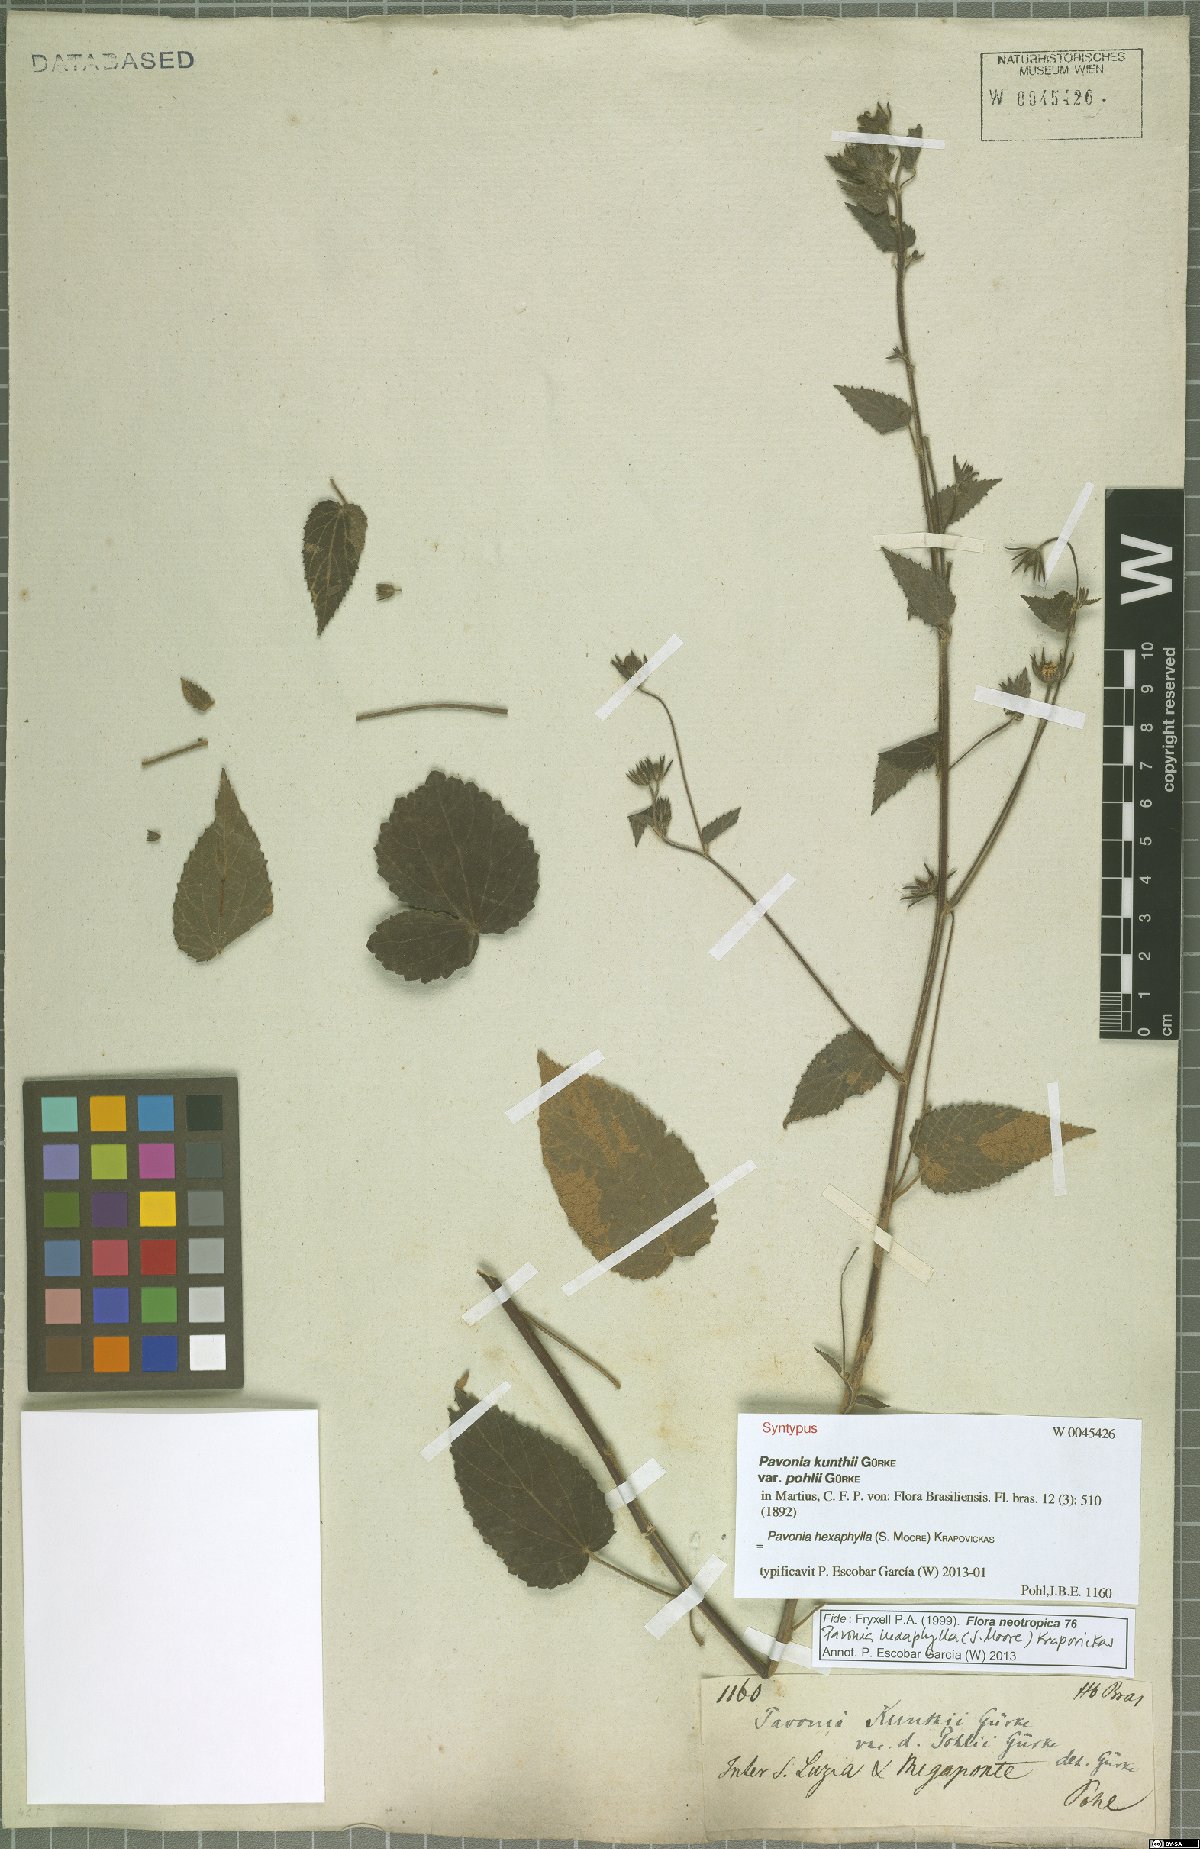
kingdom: Plantae
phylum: Tracheophyta
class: Magnoliopsida
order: Malvales
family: Malvaceae
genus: Pavonia
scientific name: Pavonia hexaphylla
